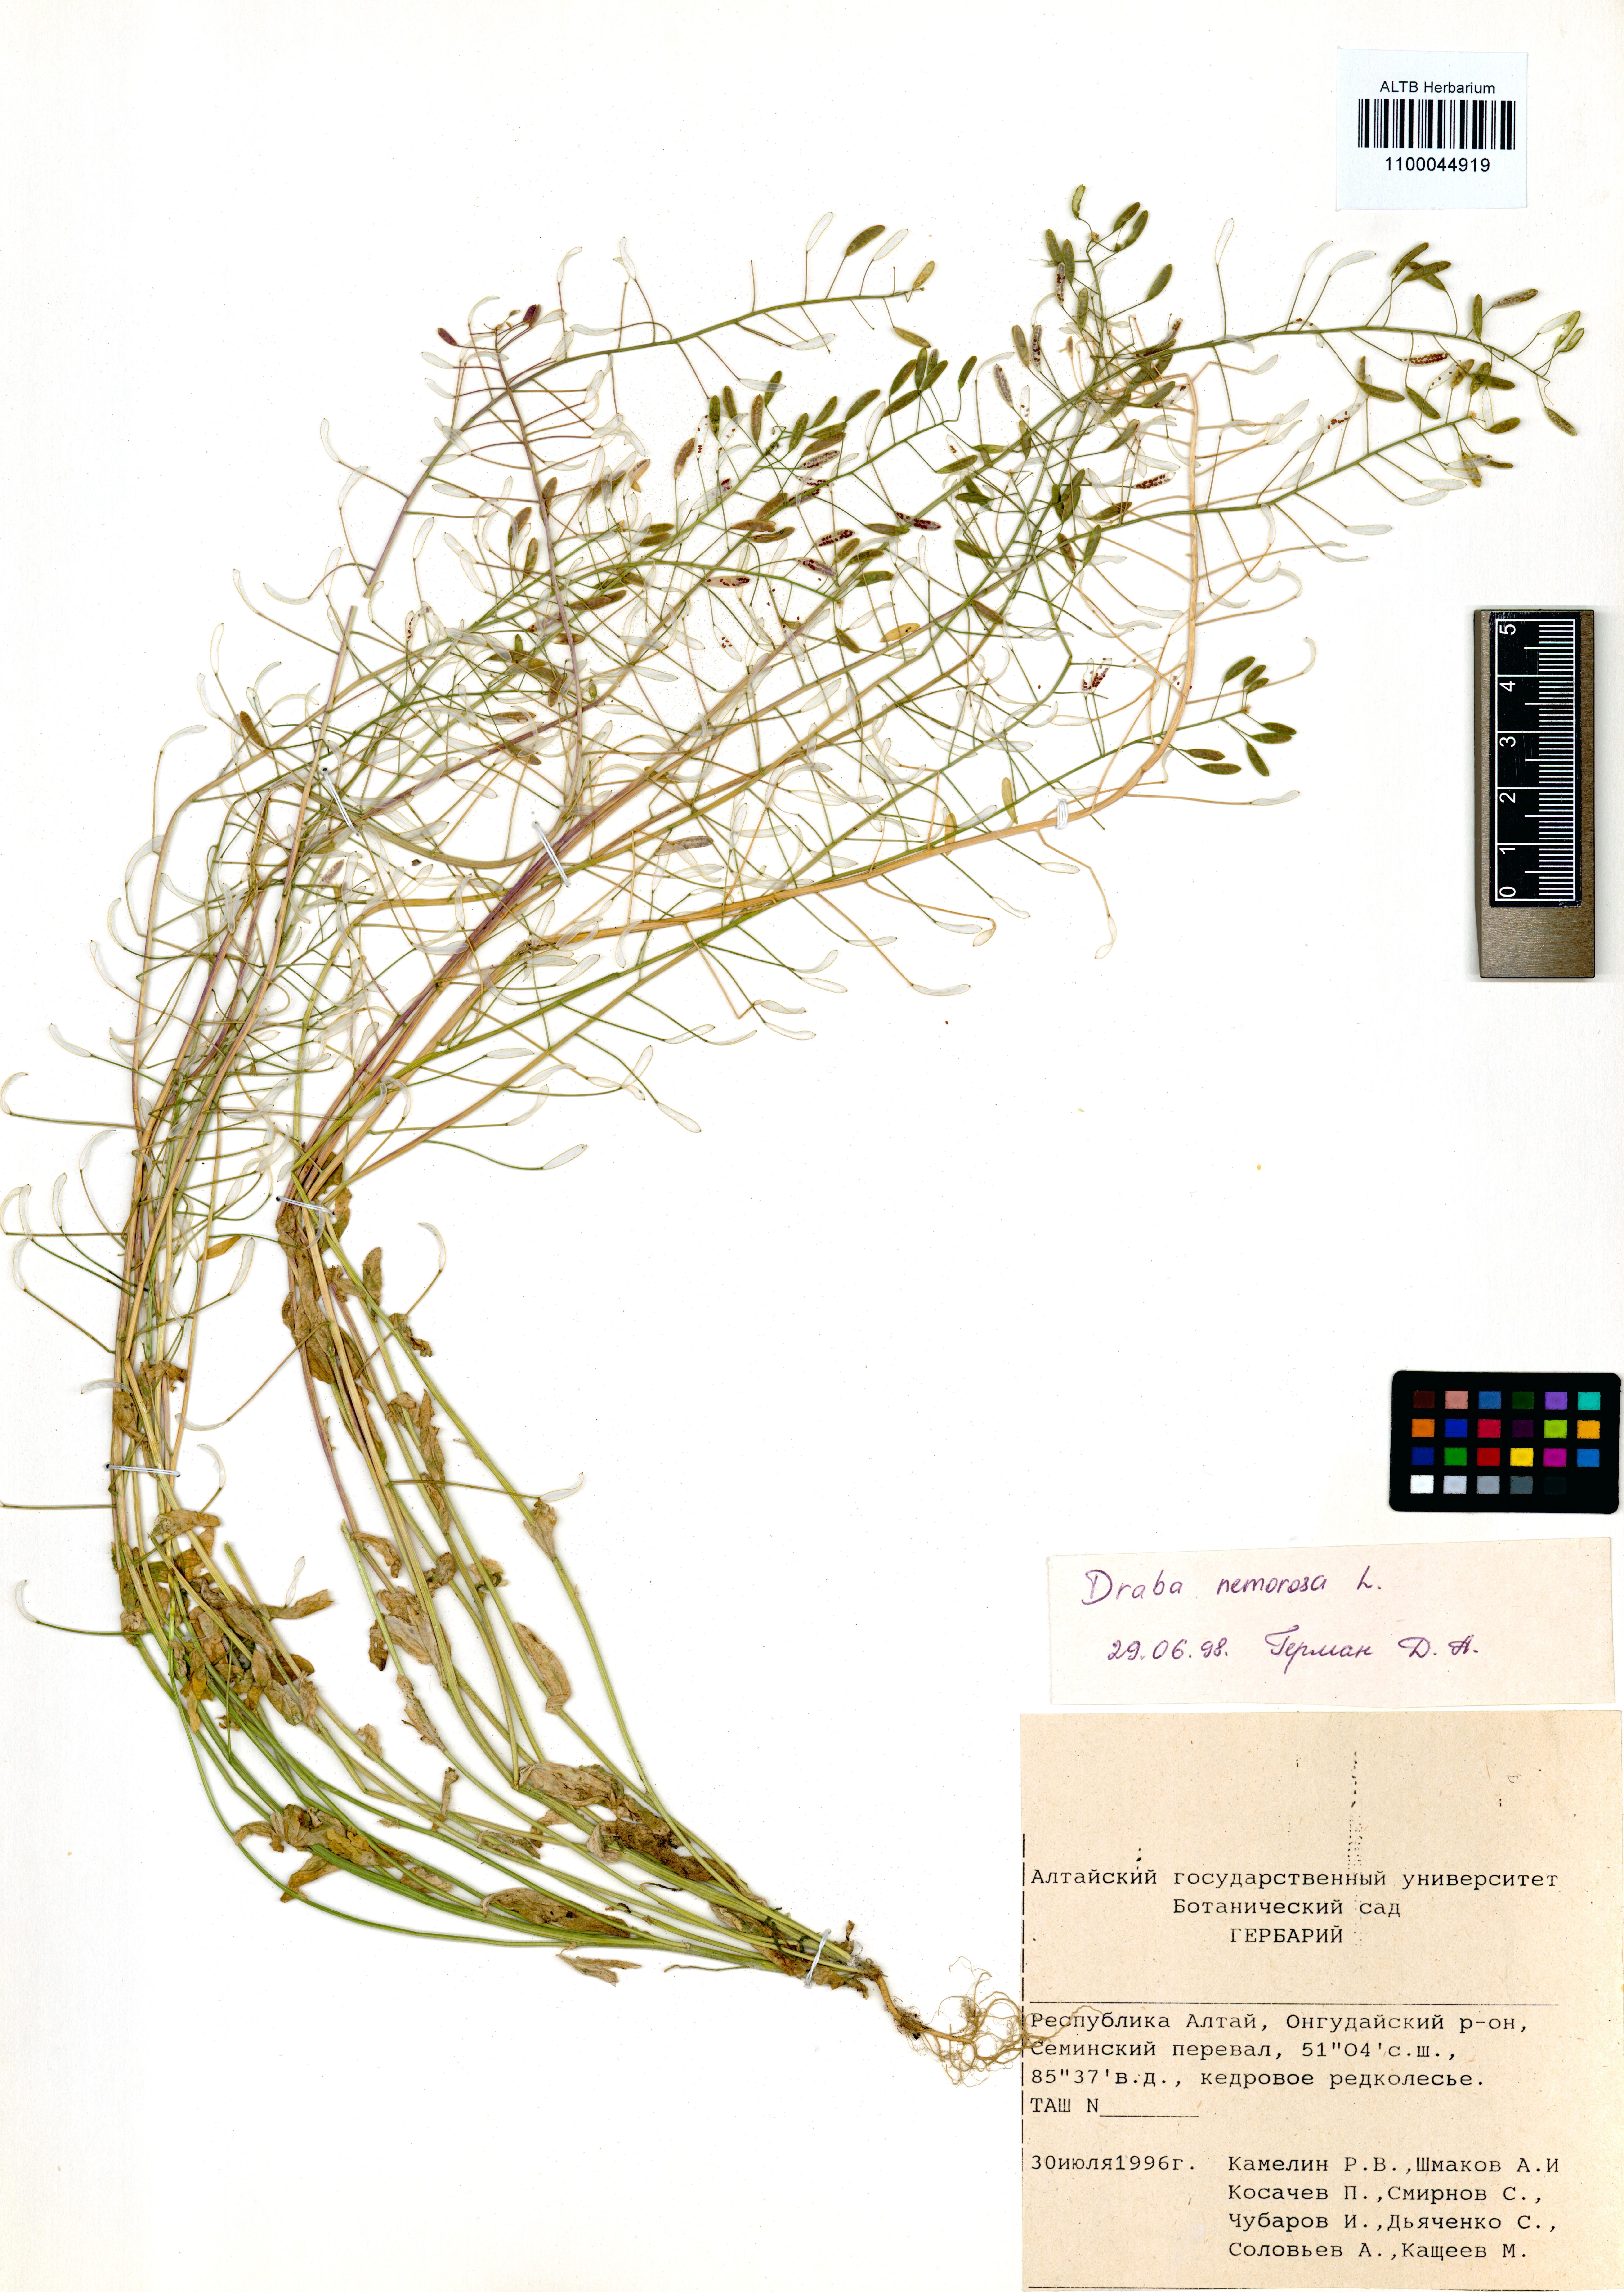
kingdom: Plantae
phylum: Tracheophyta
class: Magnoliopsida
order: Brassicales
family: Brassicaceae
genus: Draba
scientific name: Draba nemorosa
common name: Wood whitlow-grass
